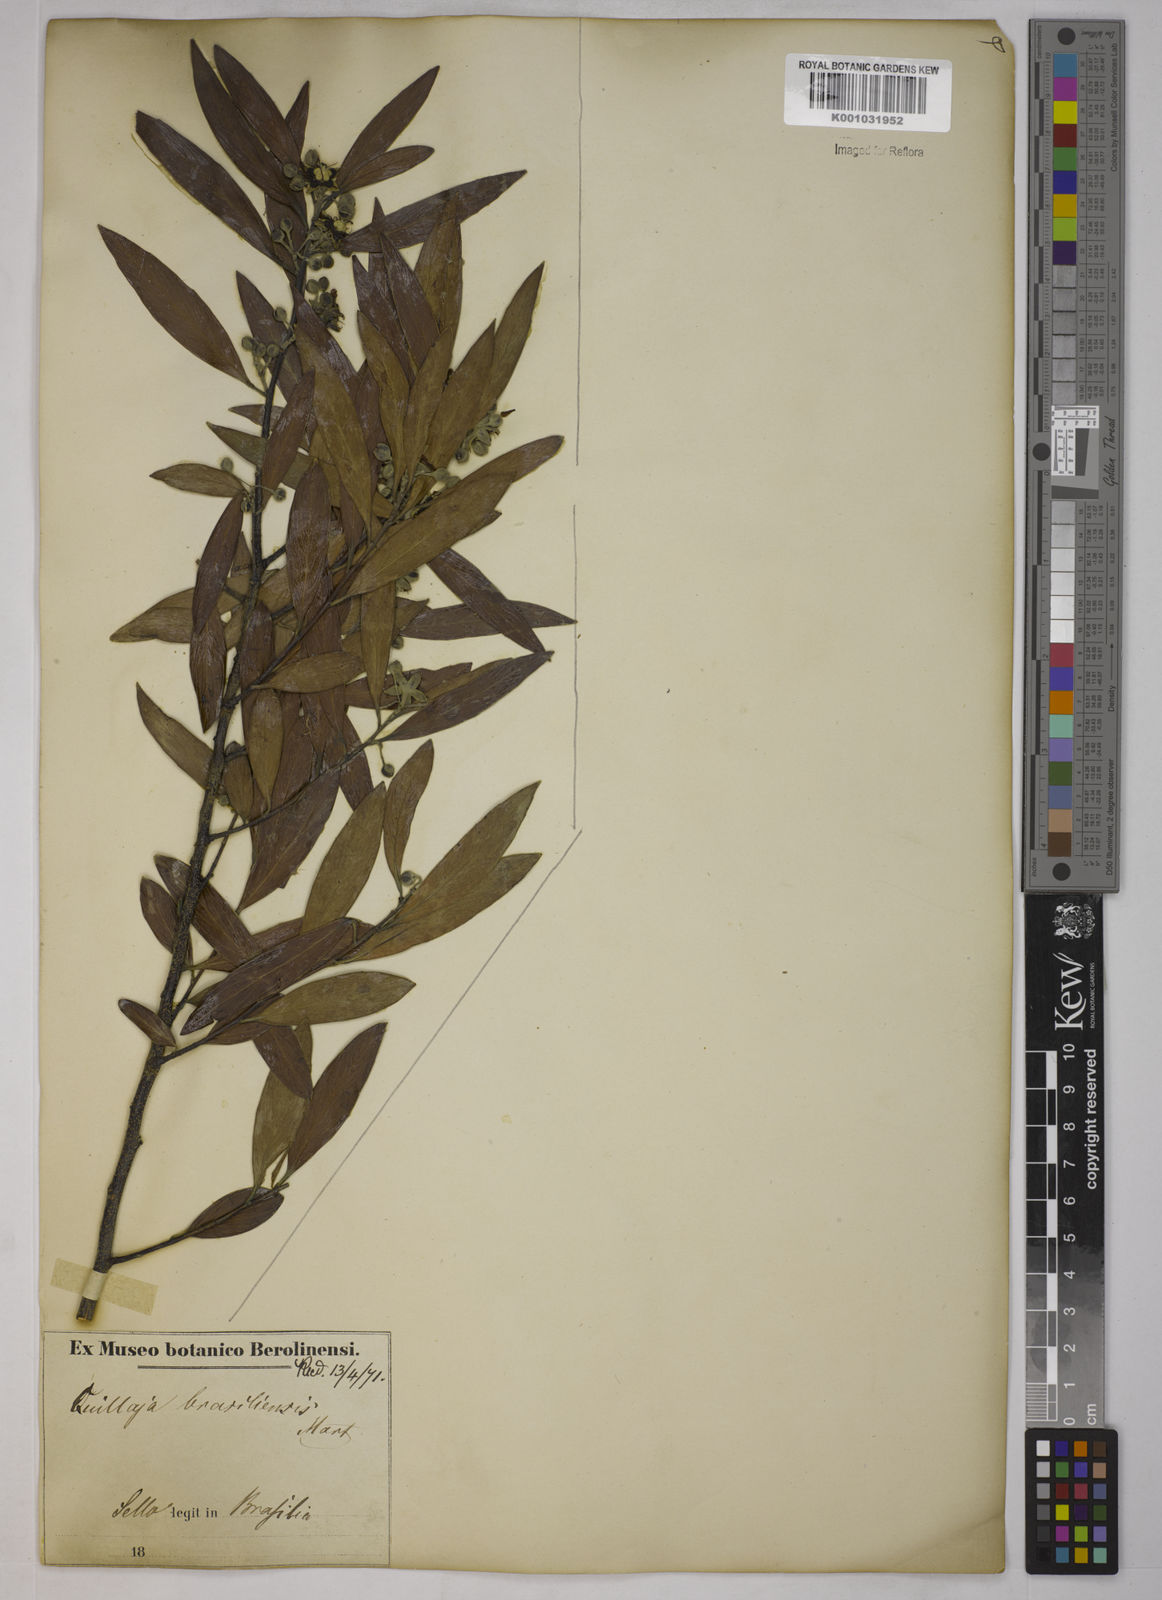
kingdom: Plantae
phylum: Tracheophyta
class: Magnoliopsida
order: Fabales
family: Quillajaceae
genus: Quillaja
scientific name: Quillaja brasiliensis
